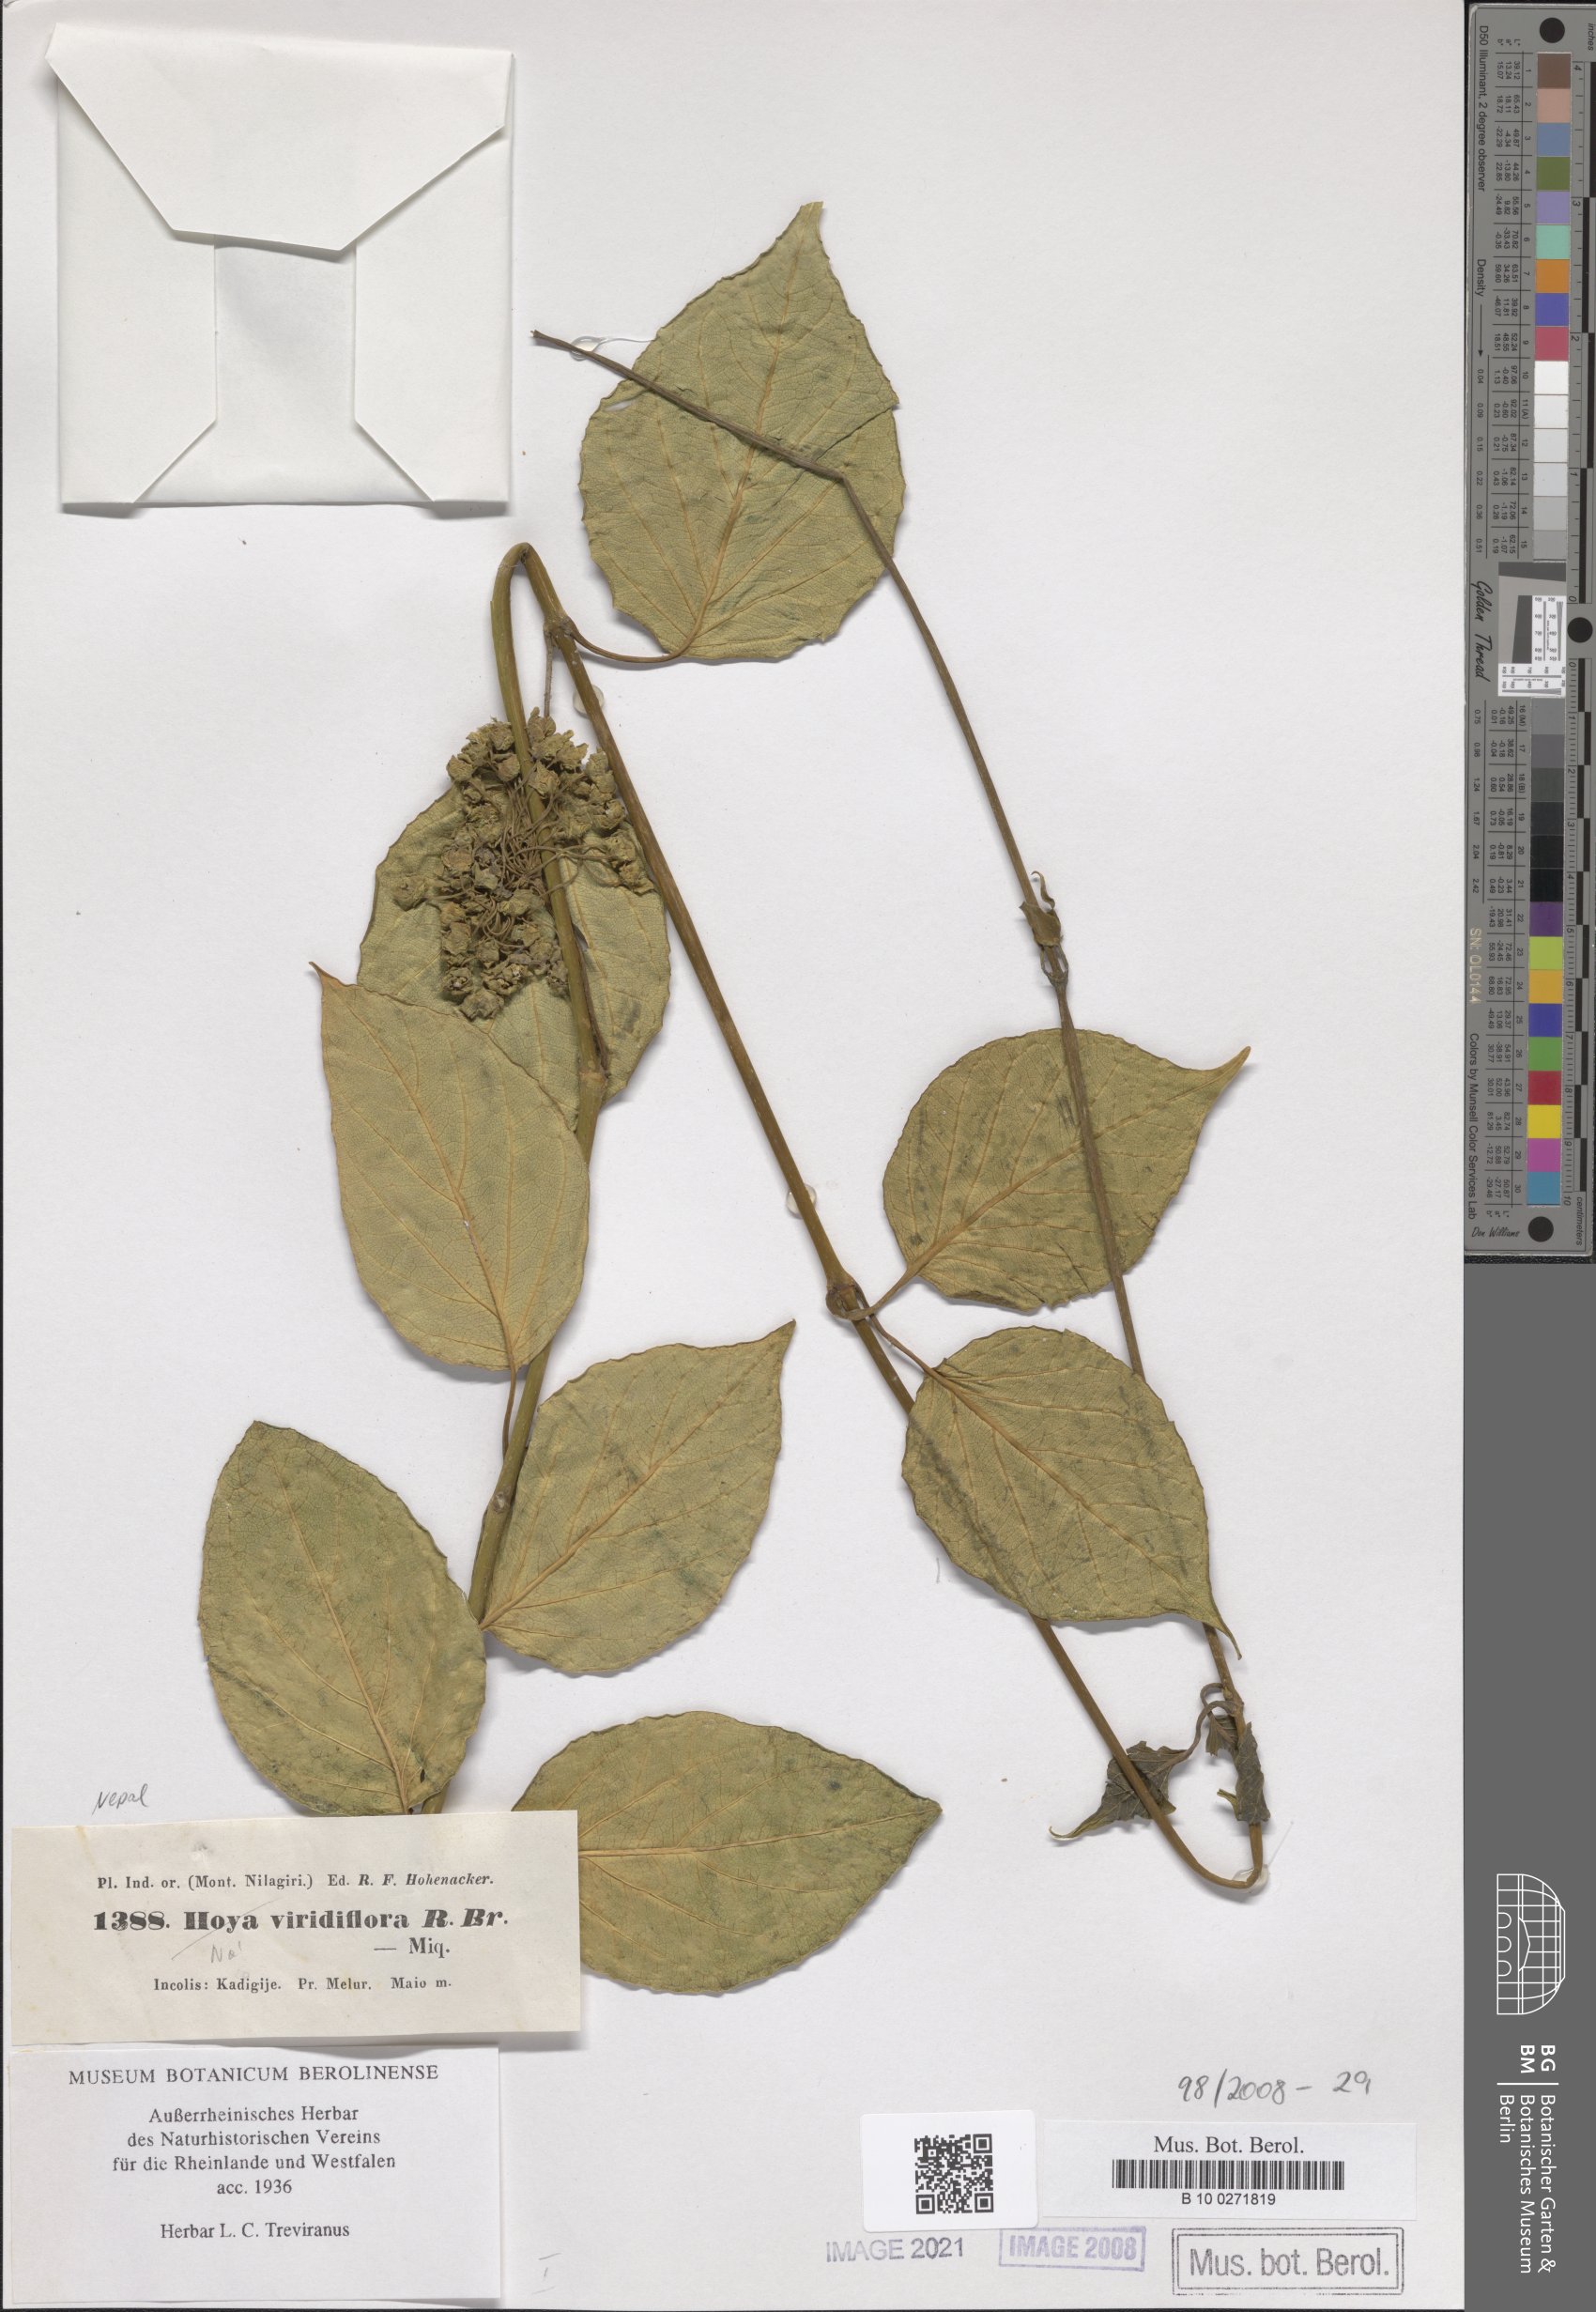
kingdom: Plantae
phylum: Tracheophyta
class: Magnoliopsida
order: Gentianales
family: Apocynaceae
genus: Stephanotis
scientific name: Stephanotis volubilis
